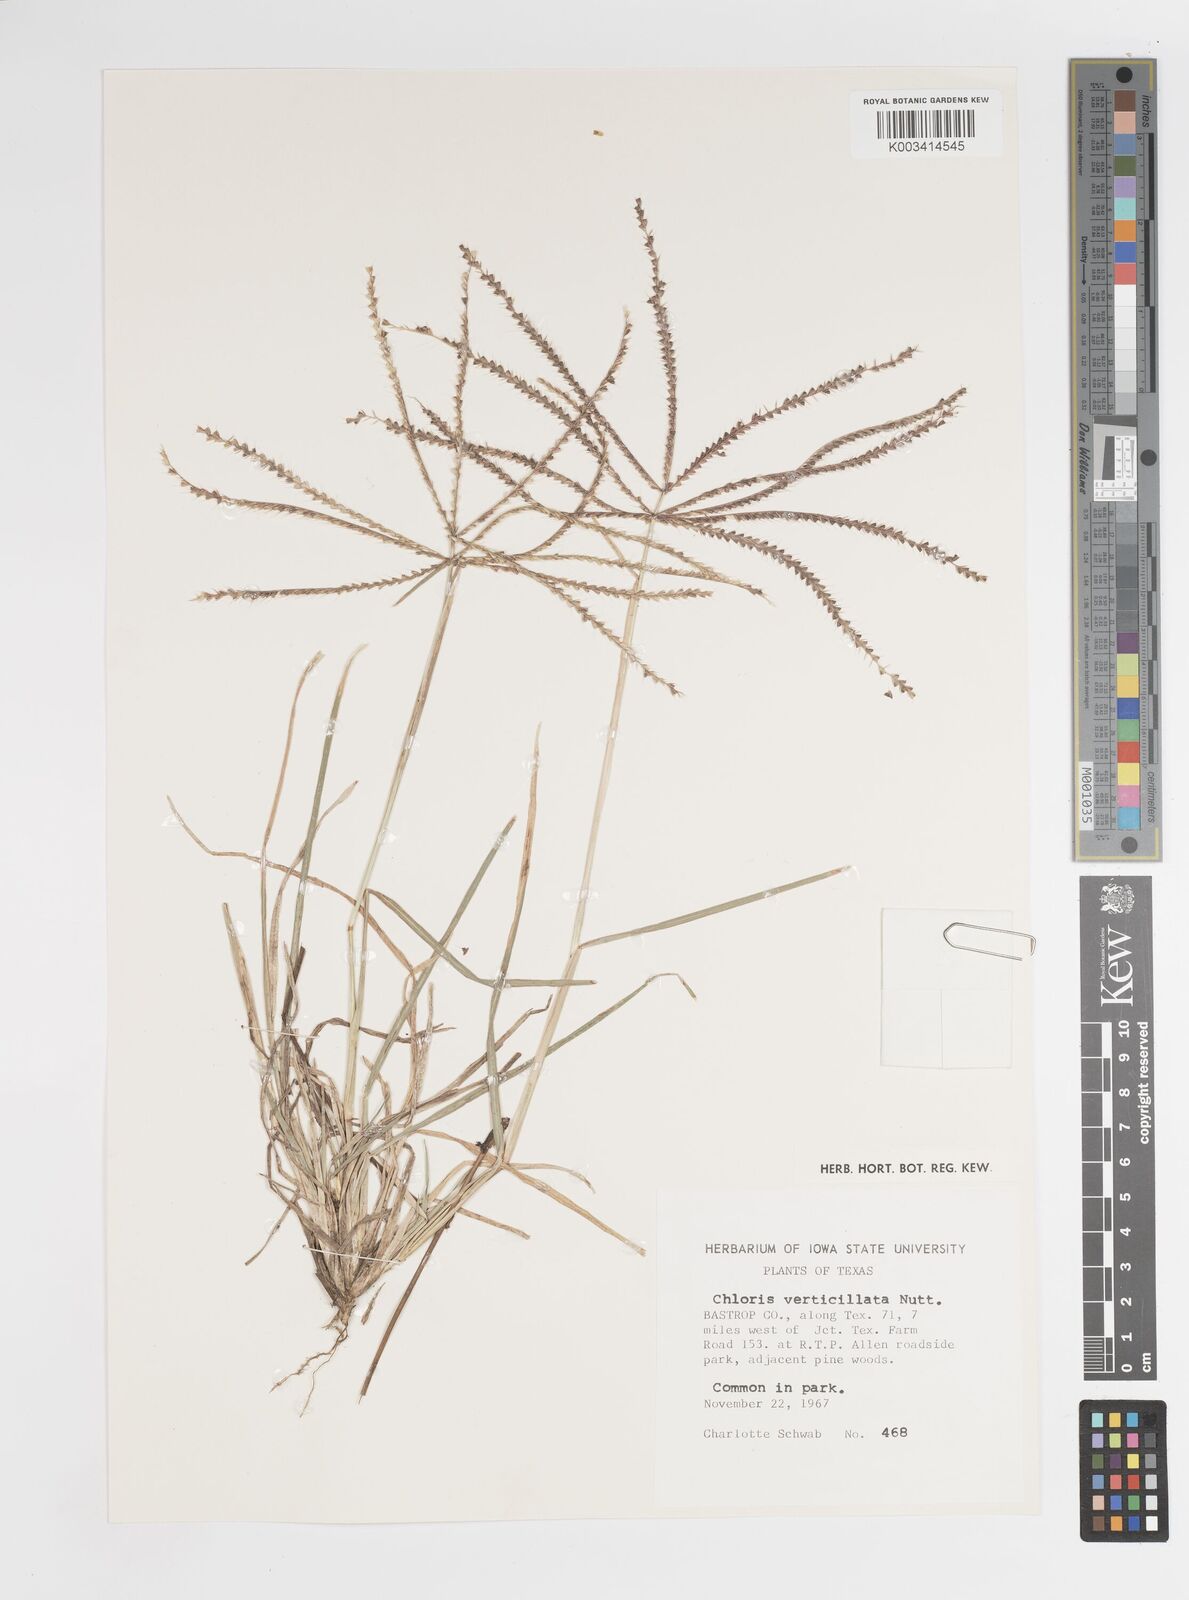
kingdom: Plantae
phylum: Tracheophyta
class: Liliopsida
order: Poales
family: Poaceae
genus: Chloris
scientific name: Chloris verticillata
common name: Tumble windmill grass
